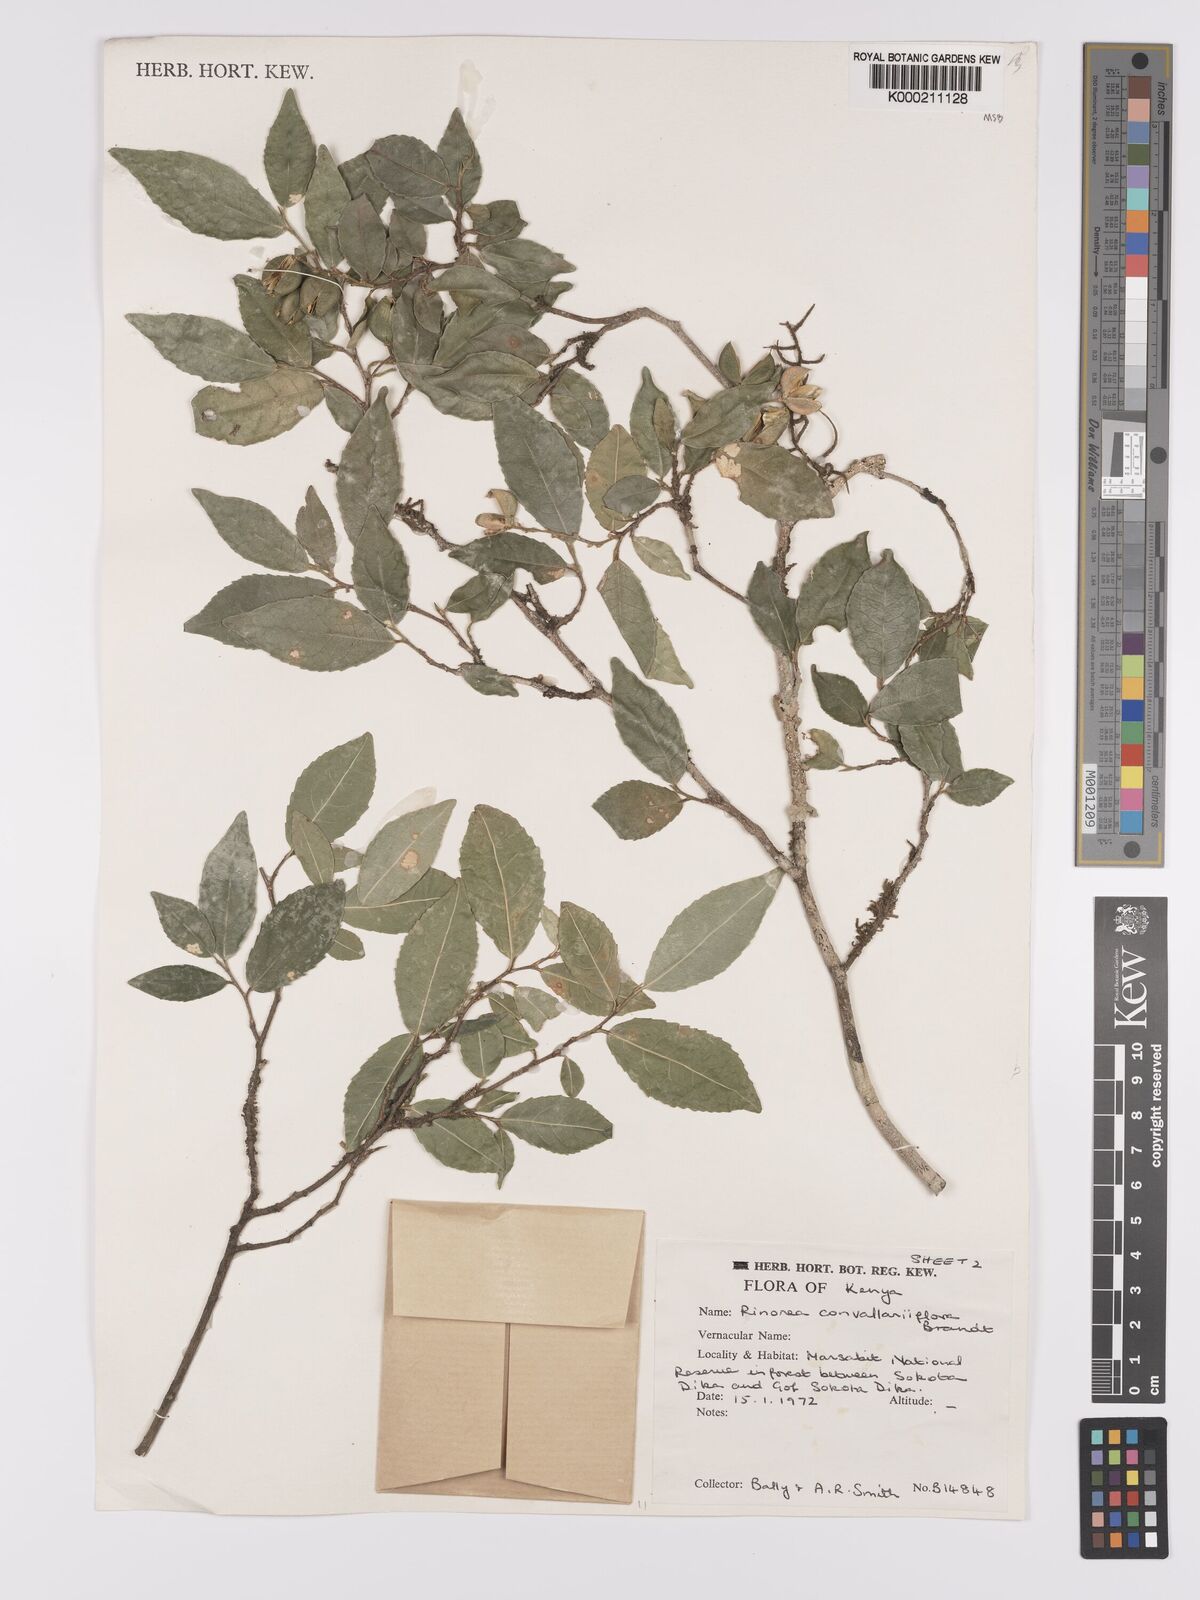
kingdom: Plantae
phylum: Tracheophyta
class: Magnoliopsida
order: Malpighiales
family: Violaceae
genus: Rinorea
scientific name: Rinorea convallarioides
